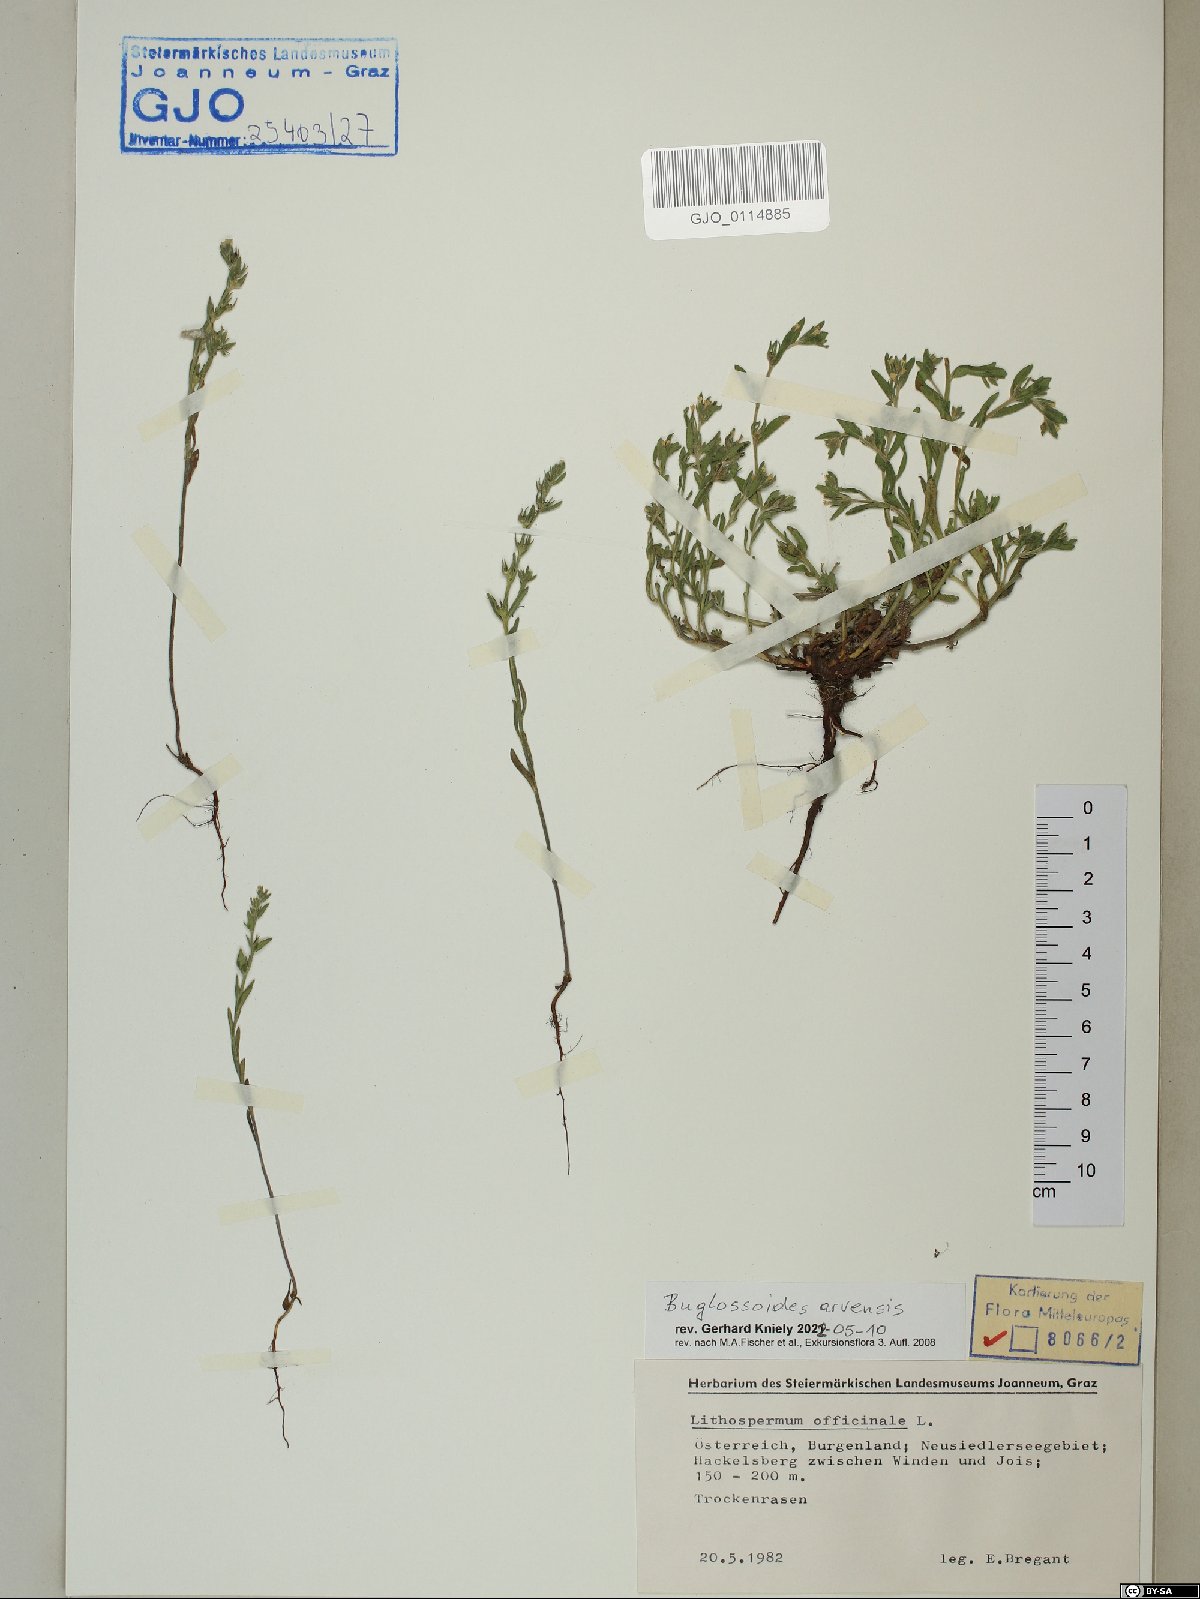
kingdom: Plantae
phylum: Tracheophyta
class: Magnoliopsida
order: Boraginales
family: Boraginaceae
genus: Buglossoides
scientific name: Buglossoides arvensis
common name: Corn gromwell
